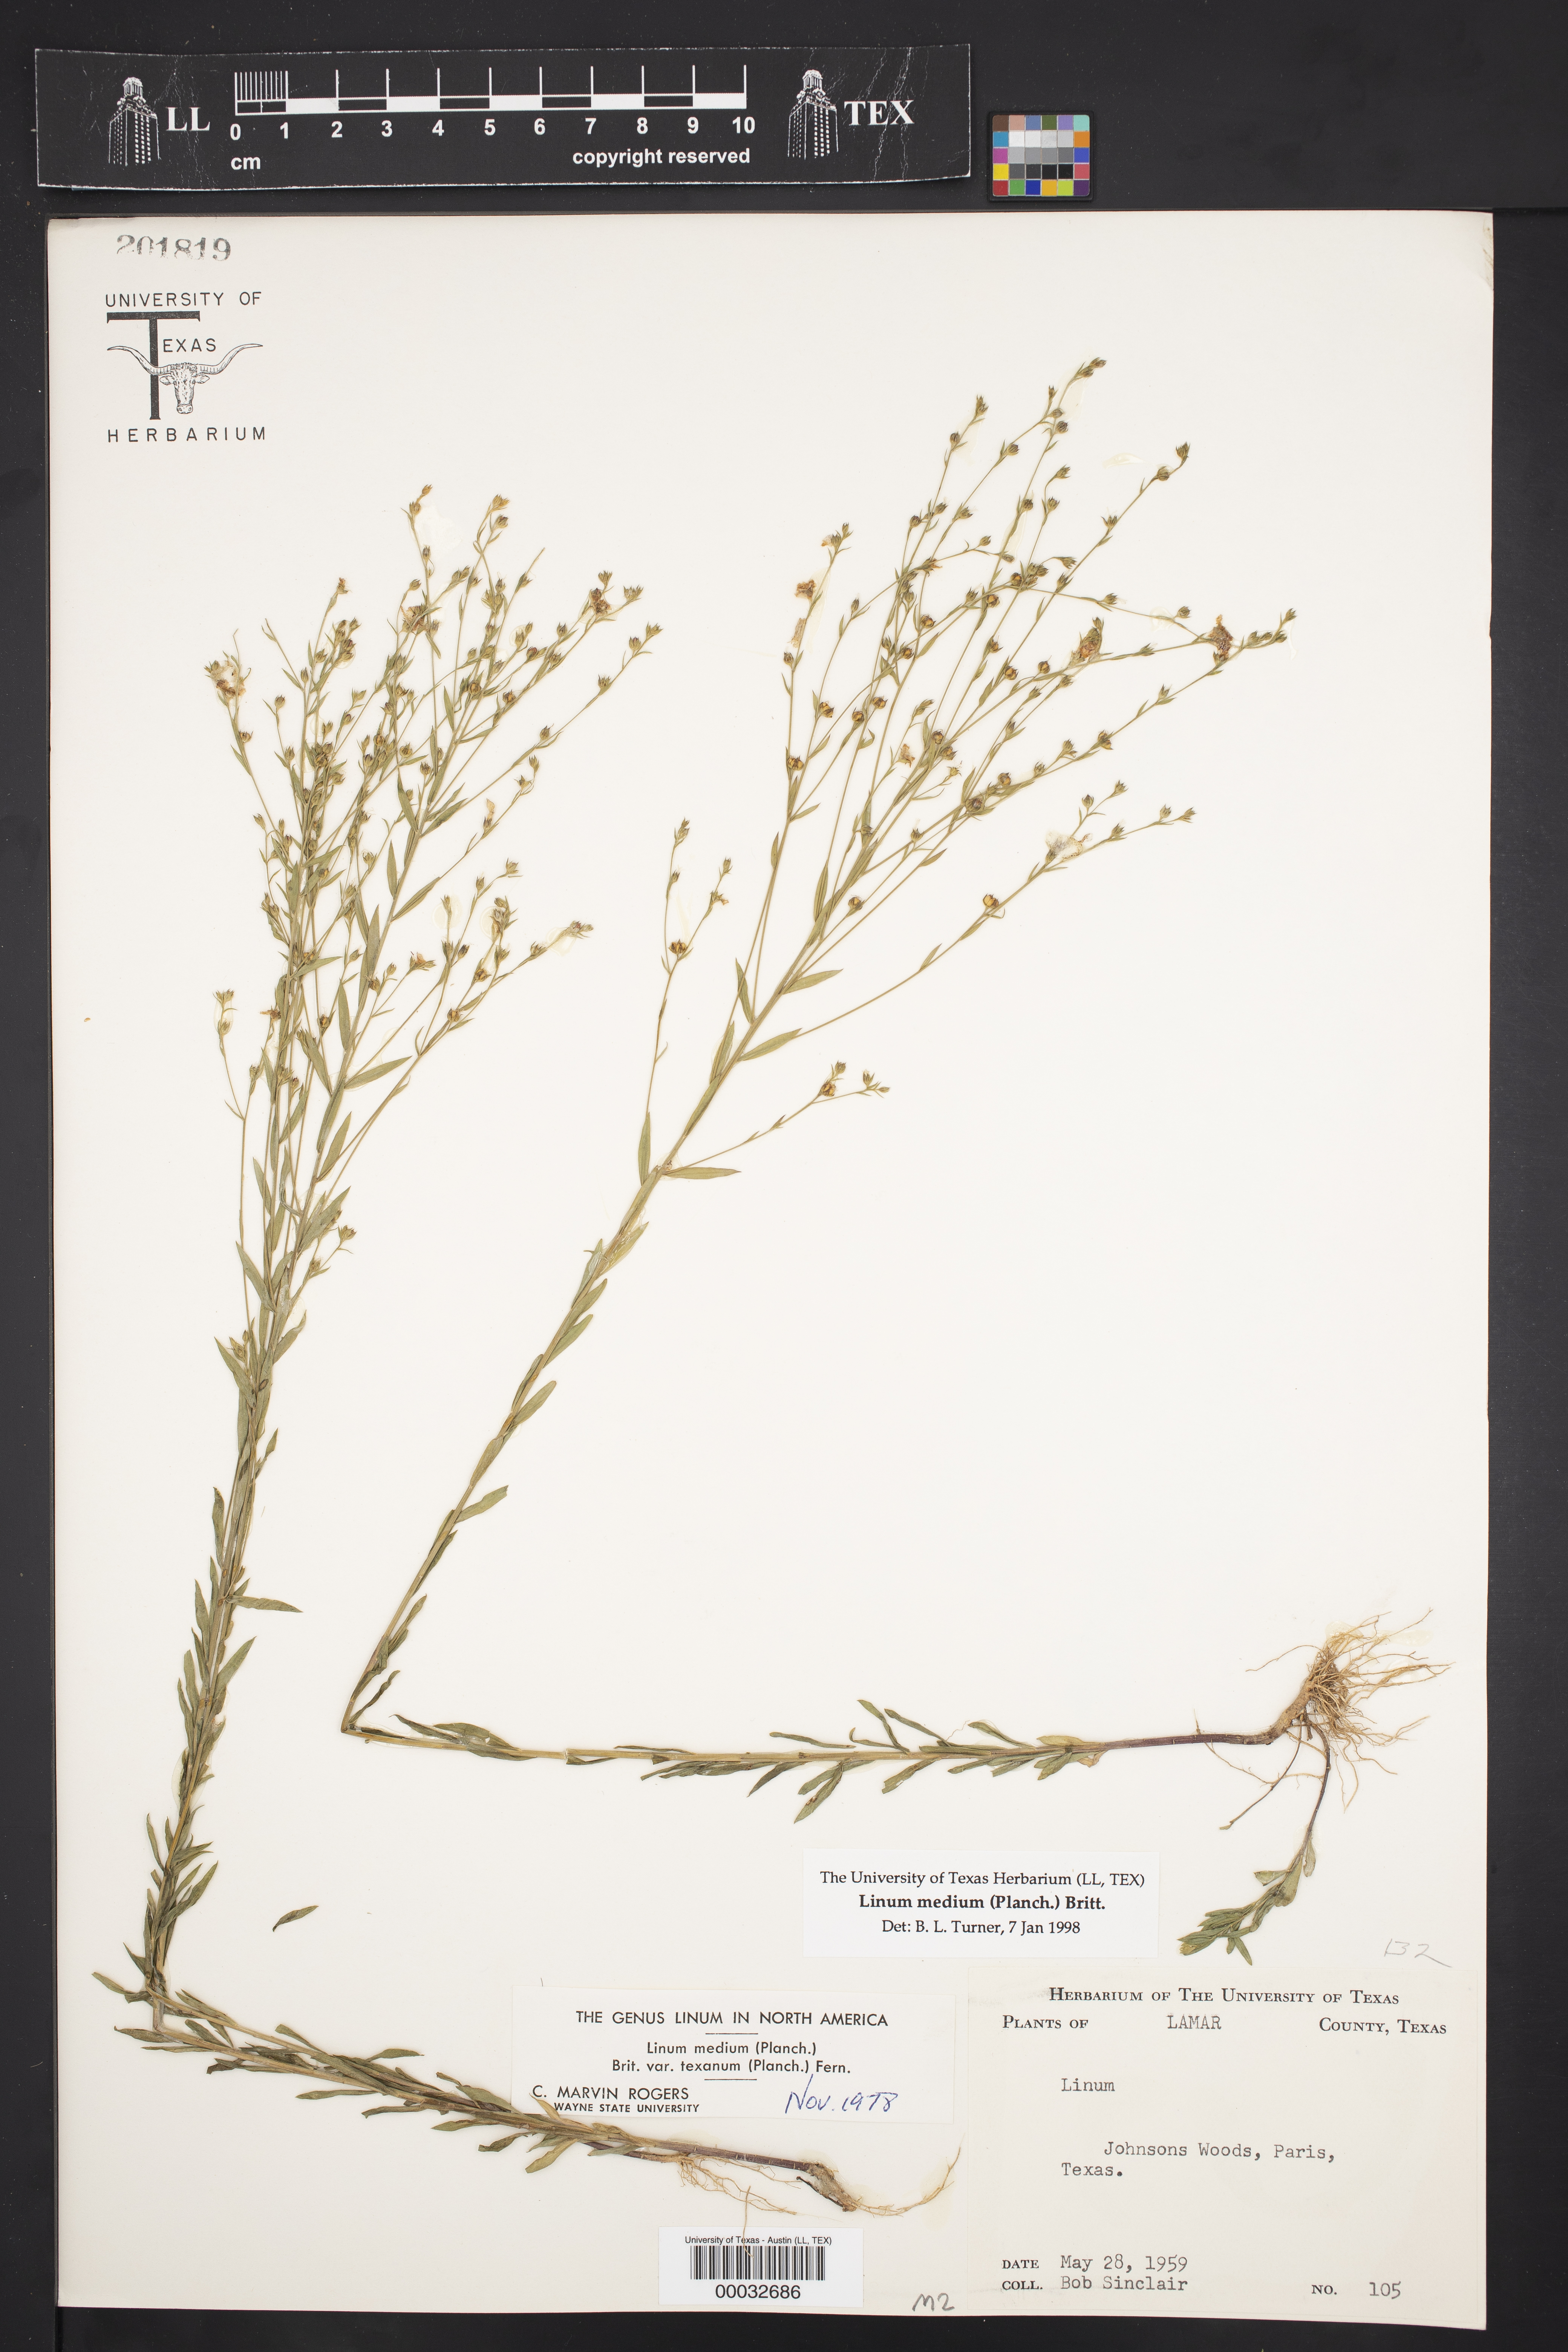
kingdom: Plantae
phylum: Tracheophyta
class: Magnoliopsida
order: Malpighiales
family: Linaceae
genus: Linum
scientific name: Linum medium
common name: Stiff yellow flax
